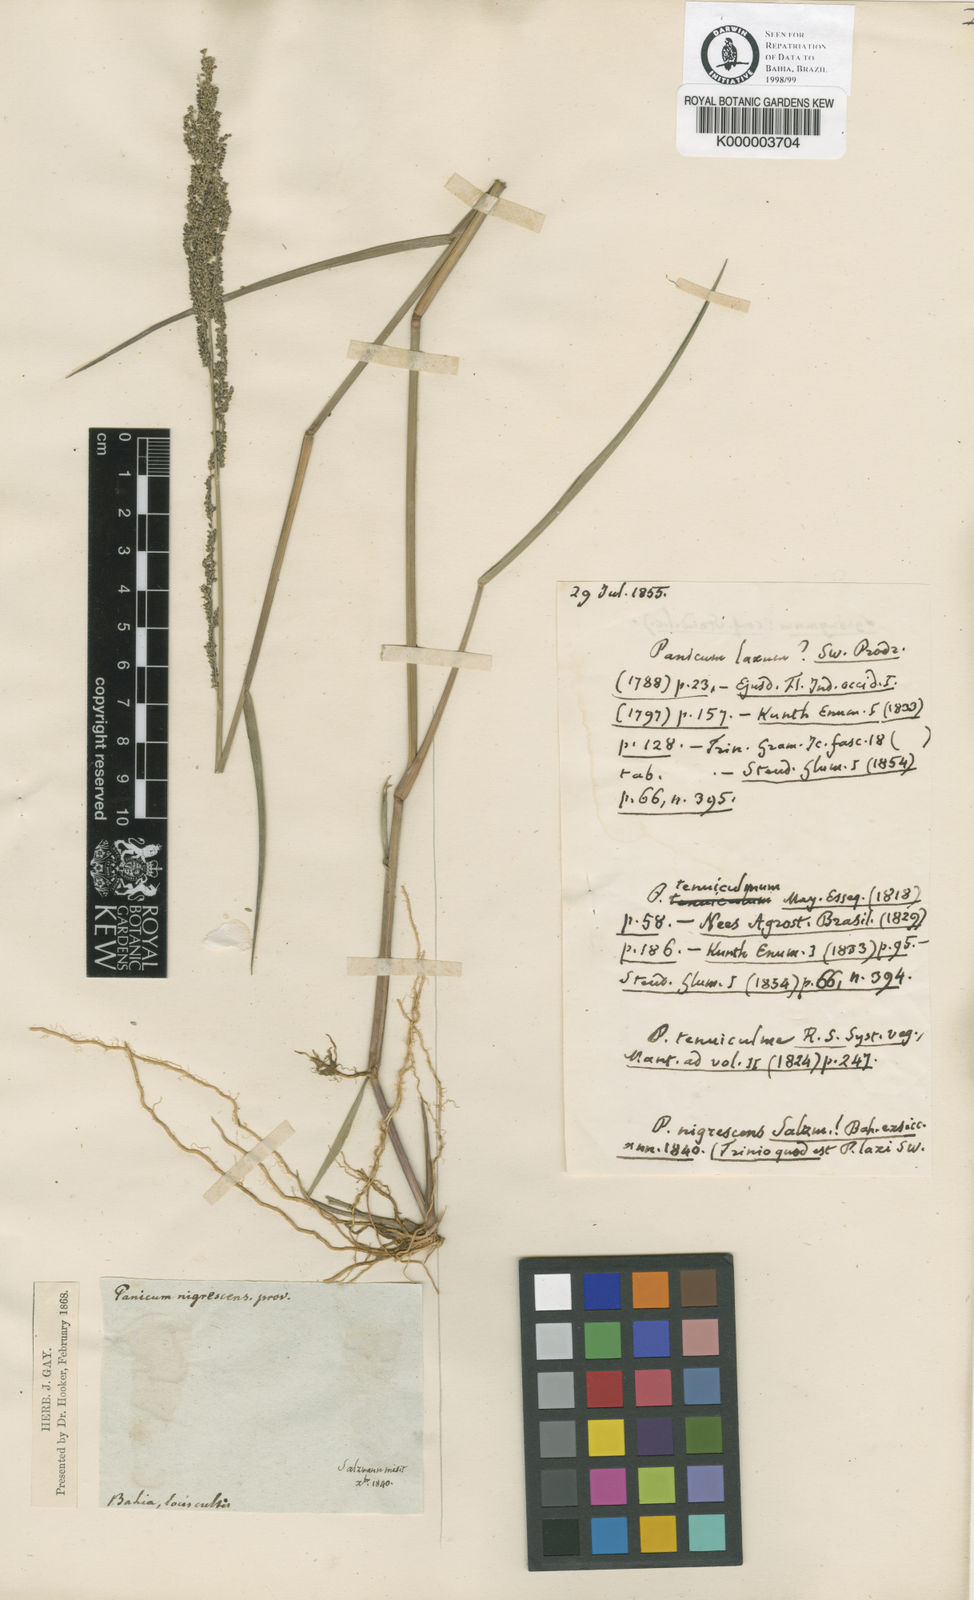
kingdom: Plantae
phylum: Tracheophyta
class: Liliopsida
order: Poales
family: Poaceae
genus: Panicum
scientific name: Panicum
